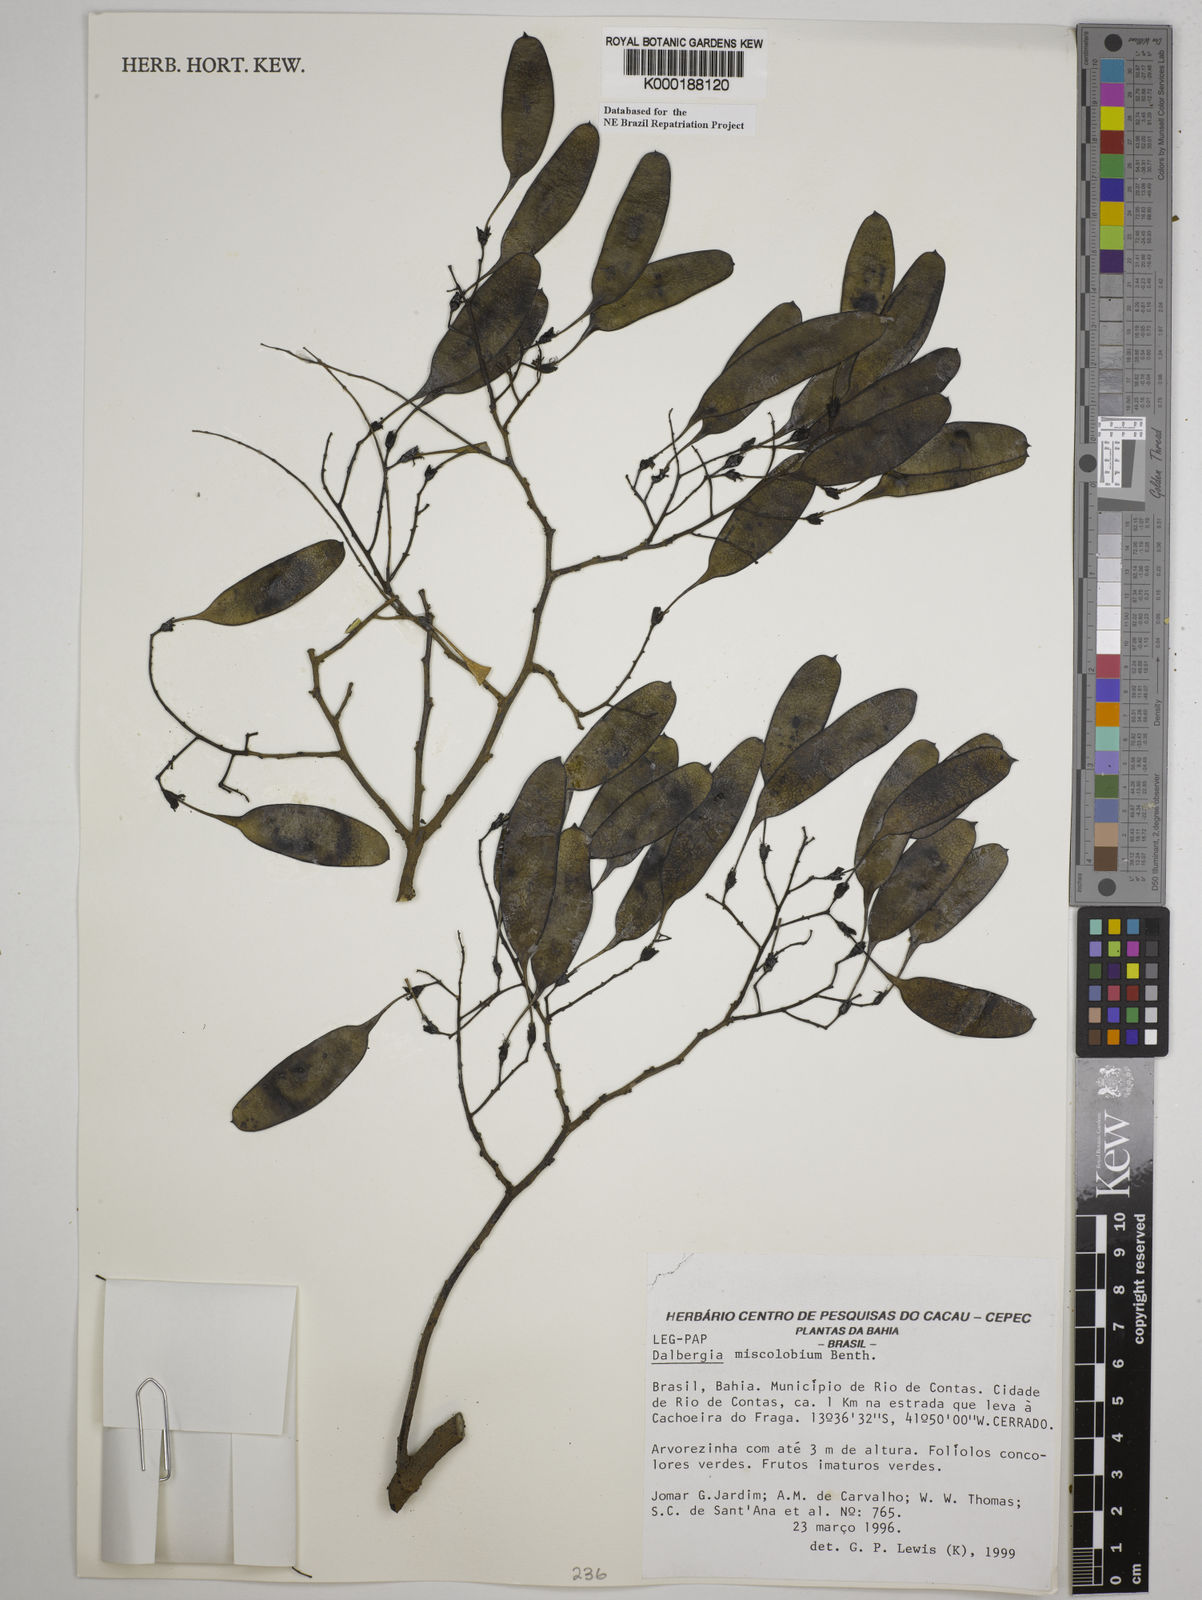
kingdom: Plantae
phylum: Tracheophyta
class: Magnoliopsida
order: Fabales
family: Fabaceae
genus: Dalbergia
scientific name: Dalbergia miscolobium
